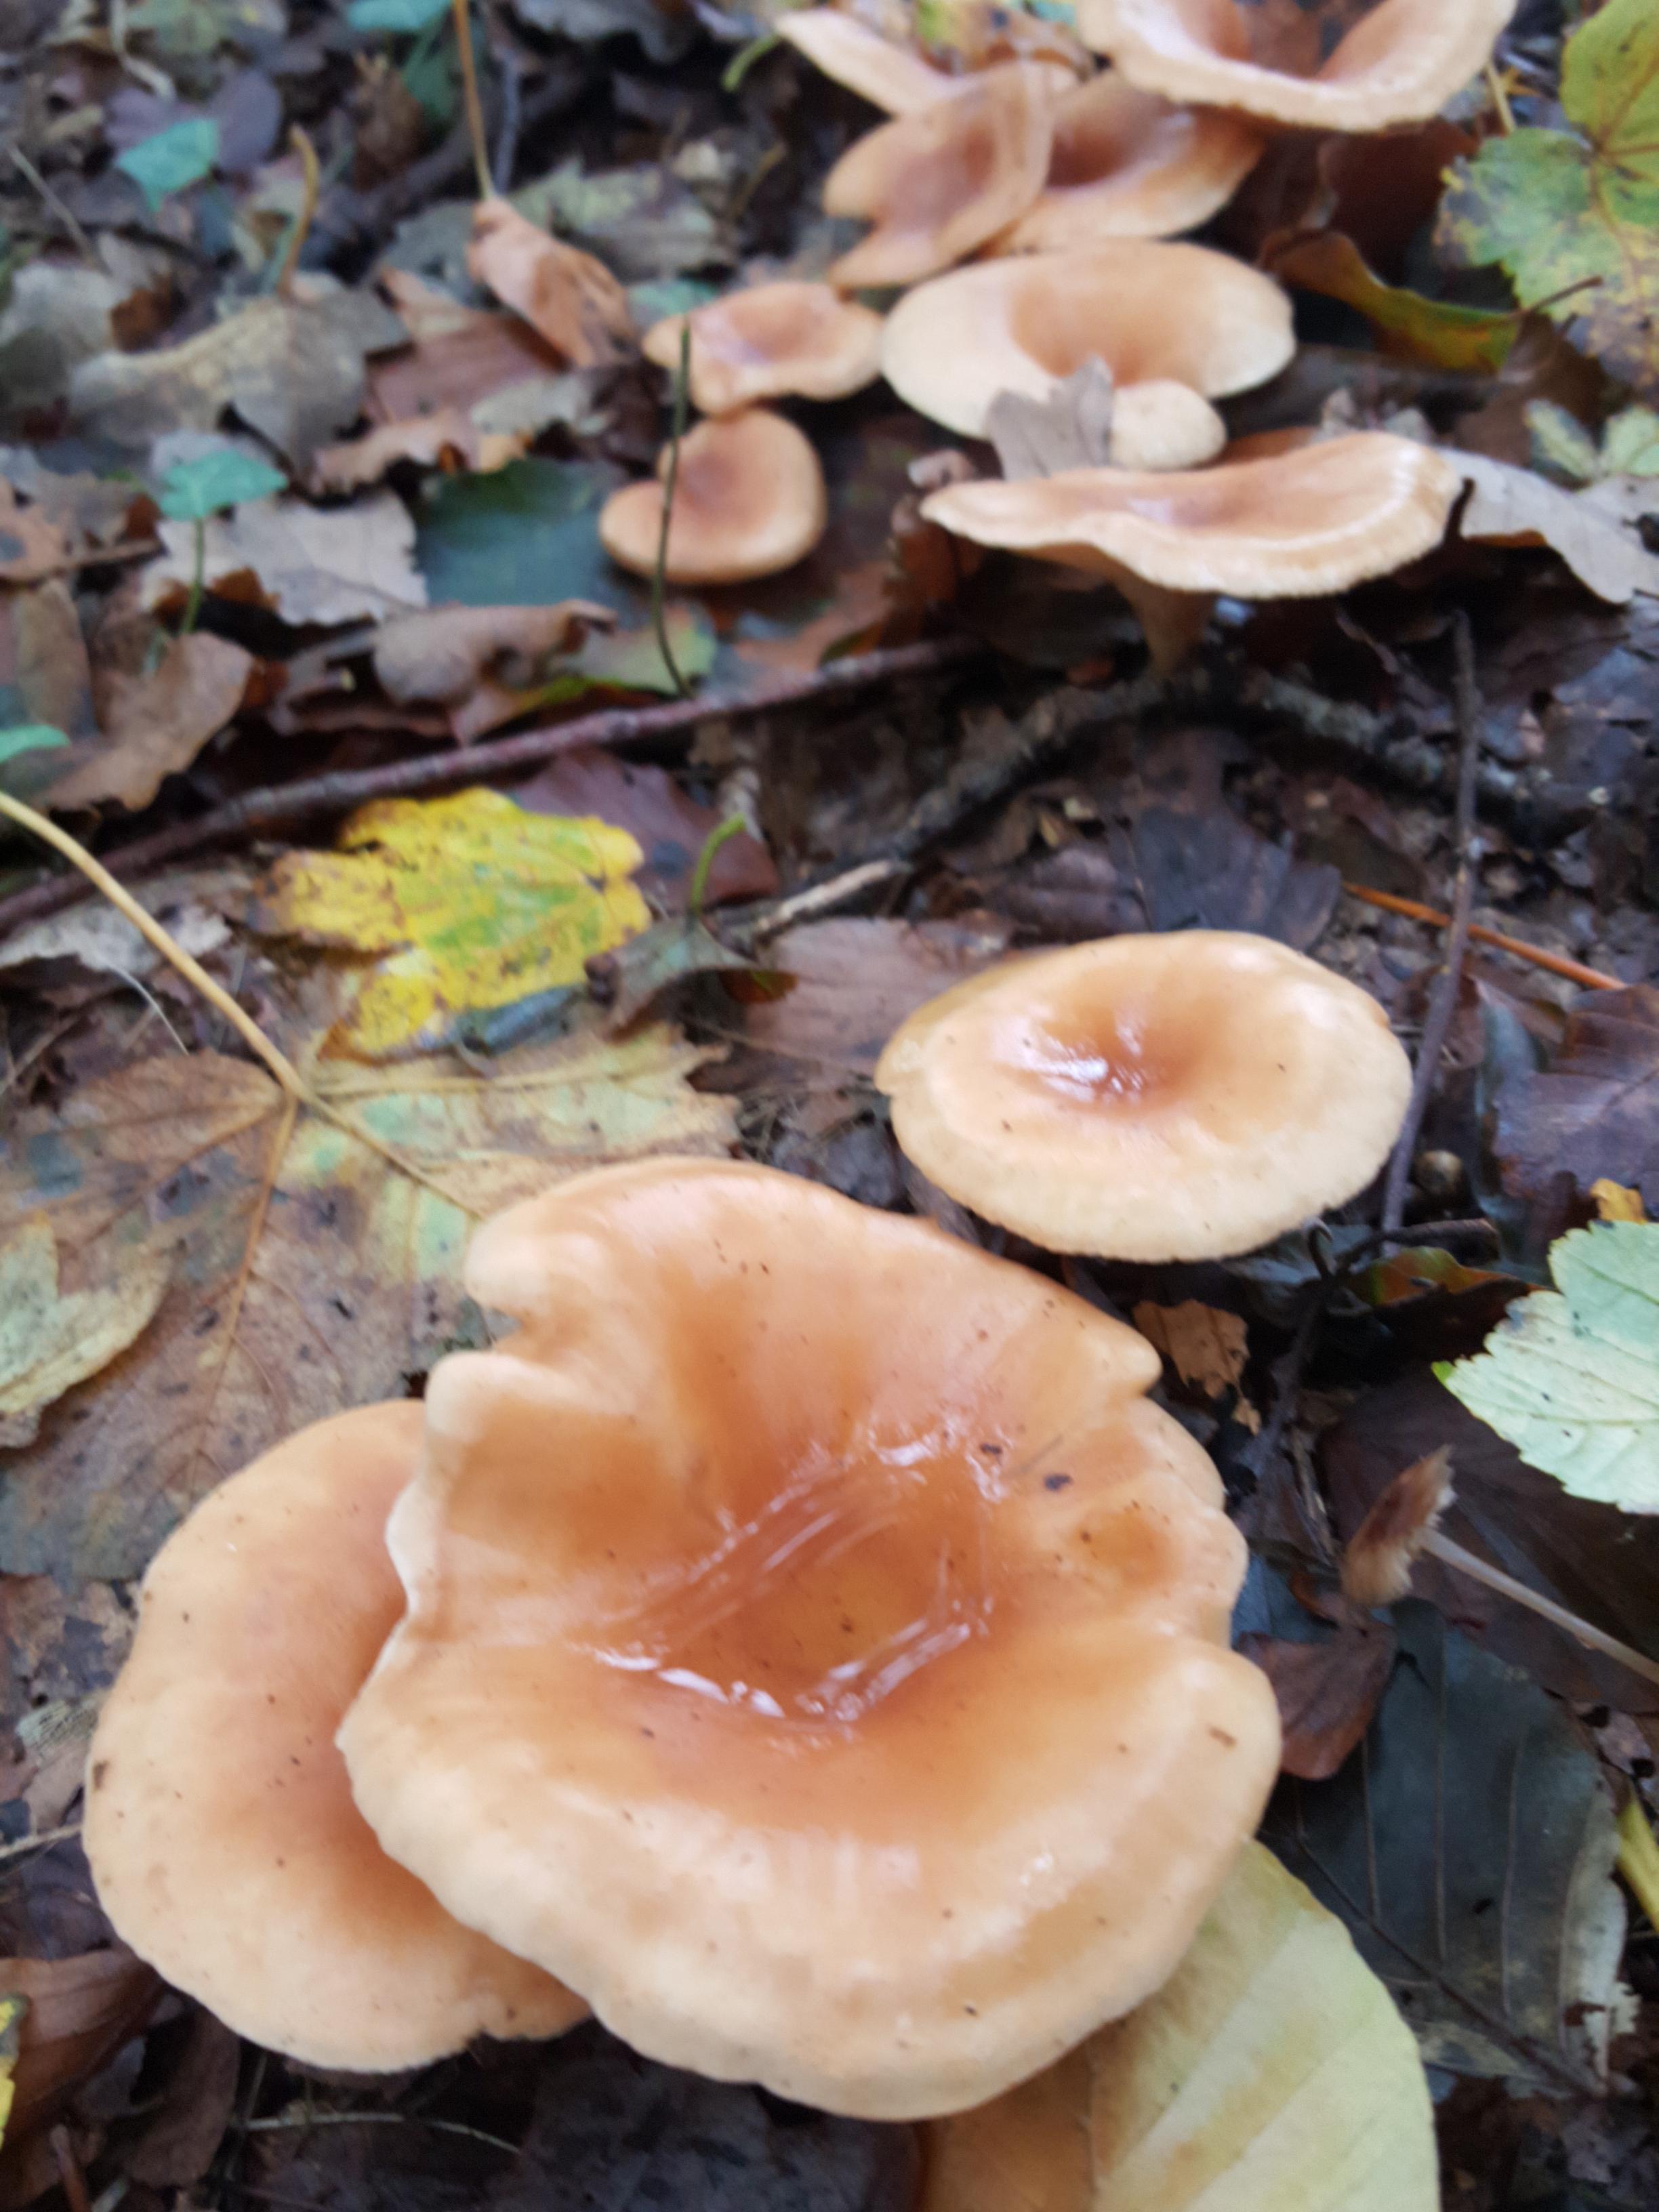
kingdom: Fungi
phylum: Basidiomycota
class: Agaricomycetes
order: Agaricales
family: Tricholomataceae
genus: Paralepista
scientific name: Paralepista flaccida
